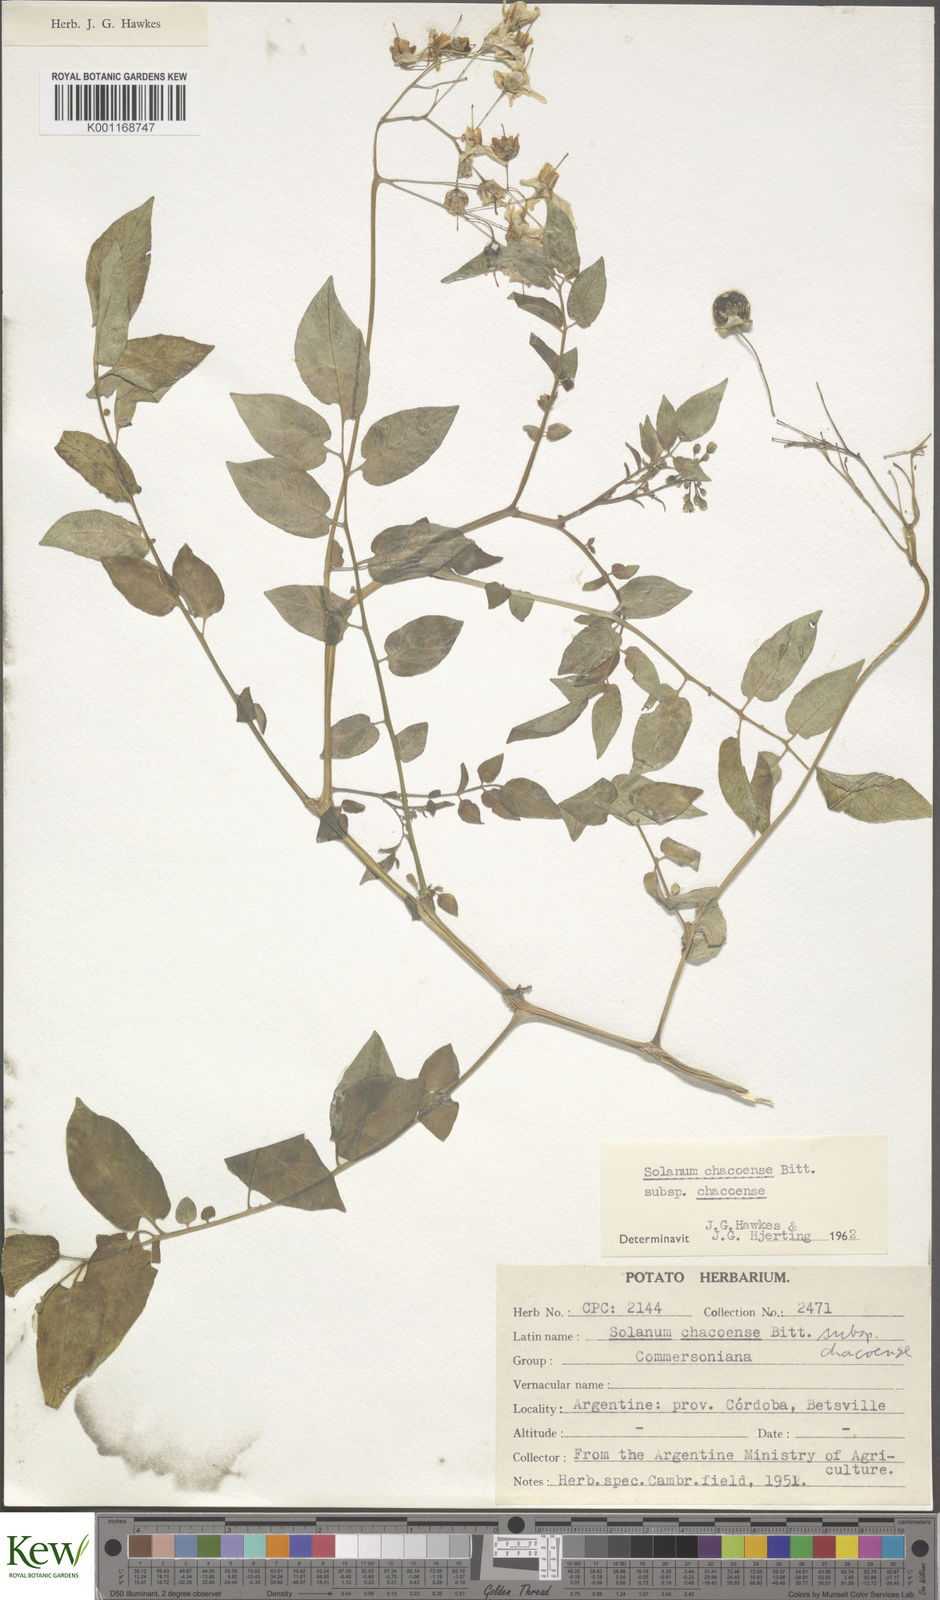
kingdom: Plantae
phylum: Tracheophyta
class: Magnoliopsida
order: Solanales
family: Solanaceae
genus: Solanum
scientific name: Solanum chacoense
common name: Chaco potato
